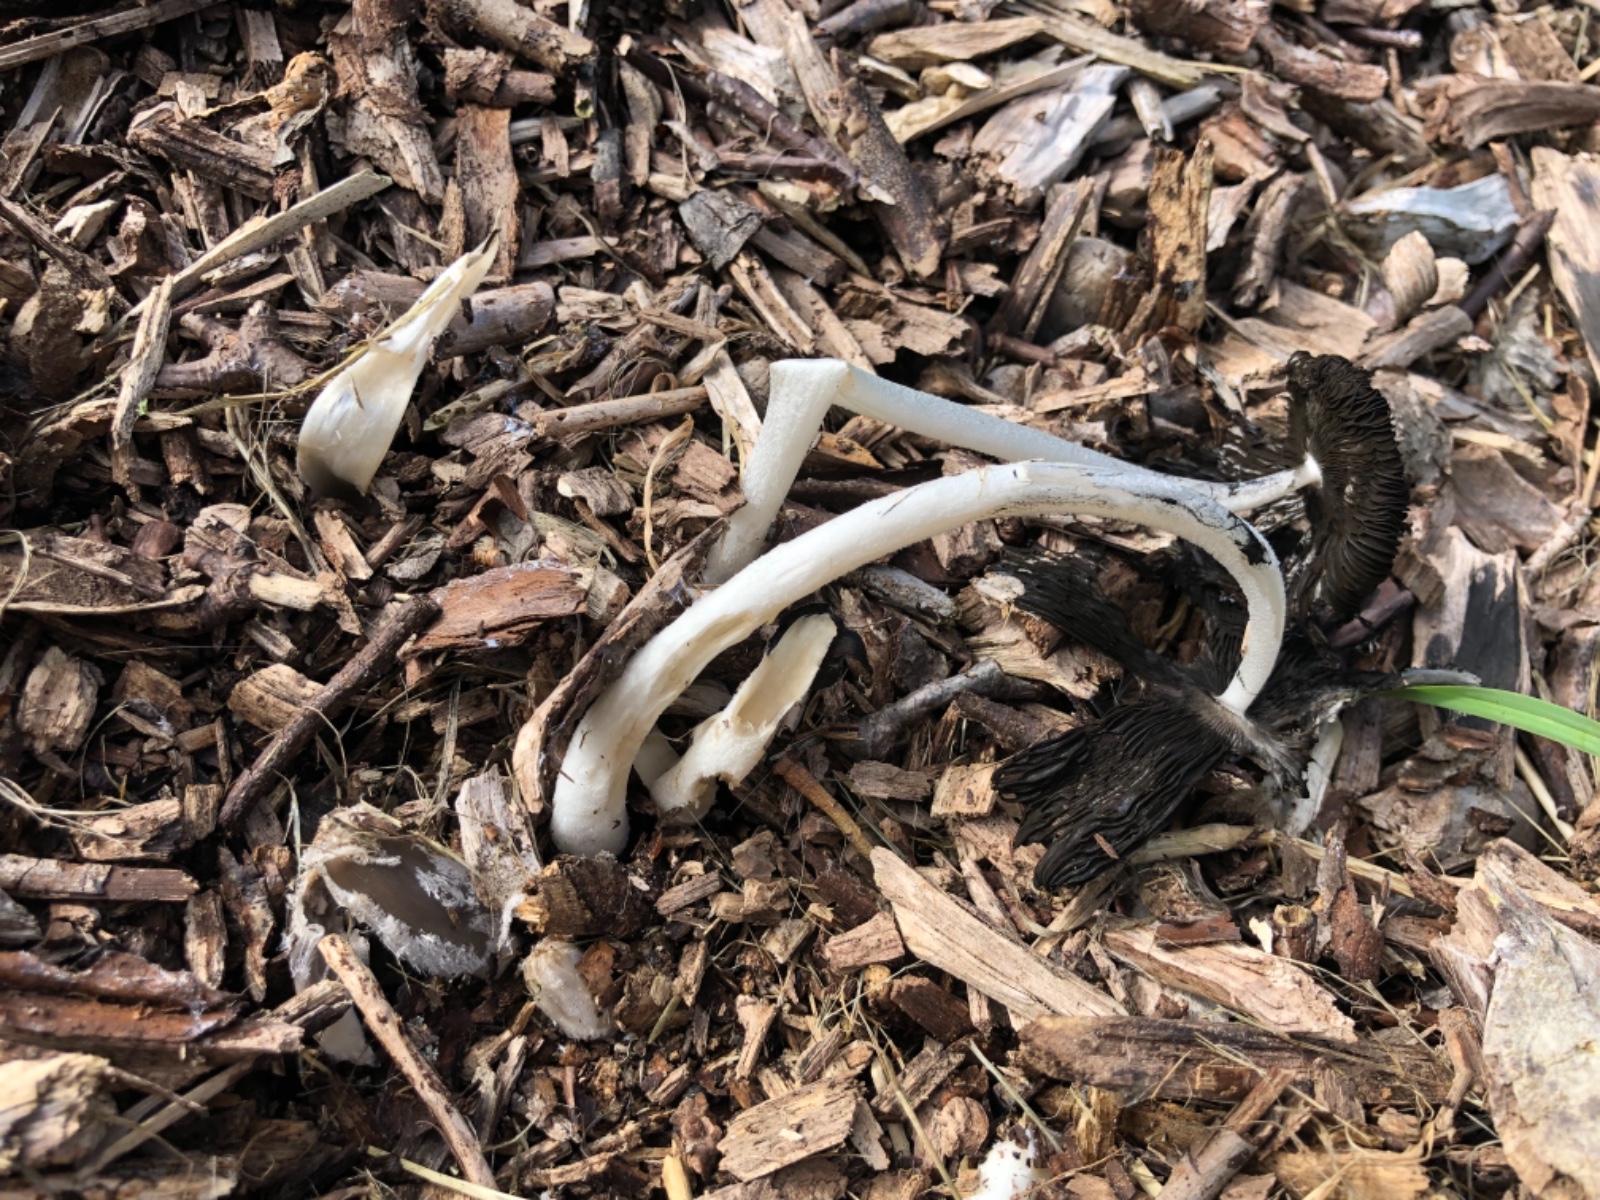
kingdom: Fungi
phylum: Basidiomycota
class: Agaricomycetes
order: Agaricales
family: Psathyrellaceae
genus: Coprinopsis
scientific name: Coprinopsis lagopus
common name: dunstokket blækhat
